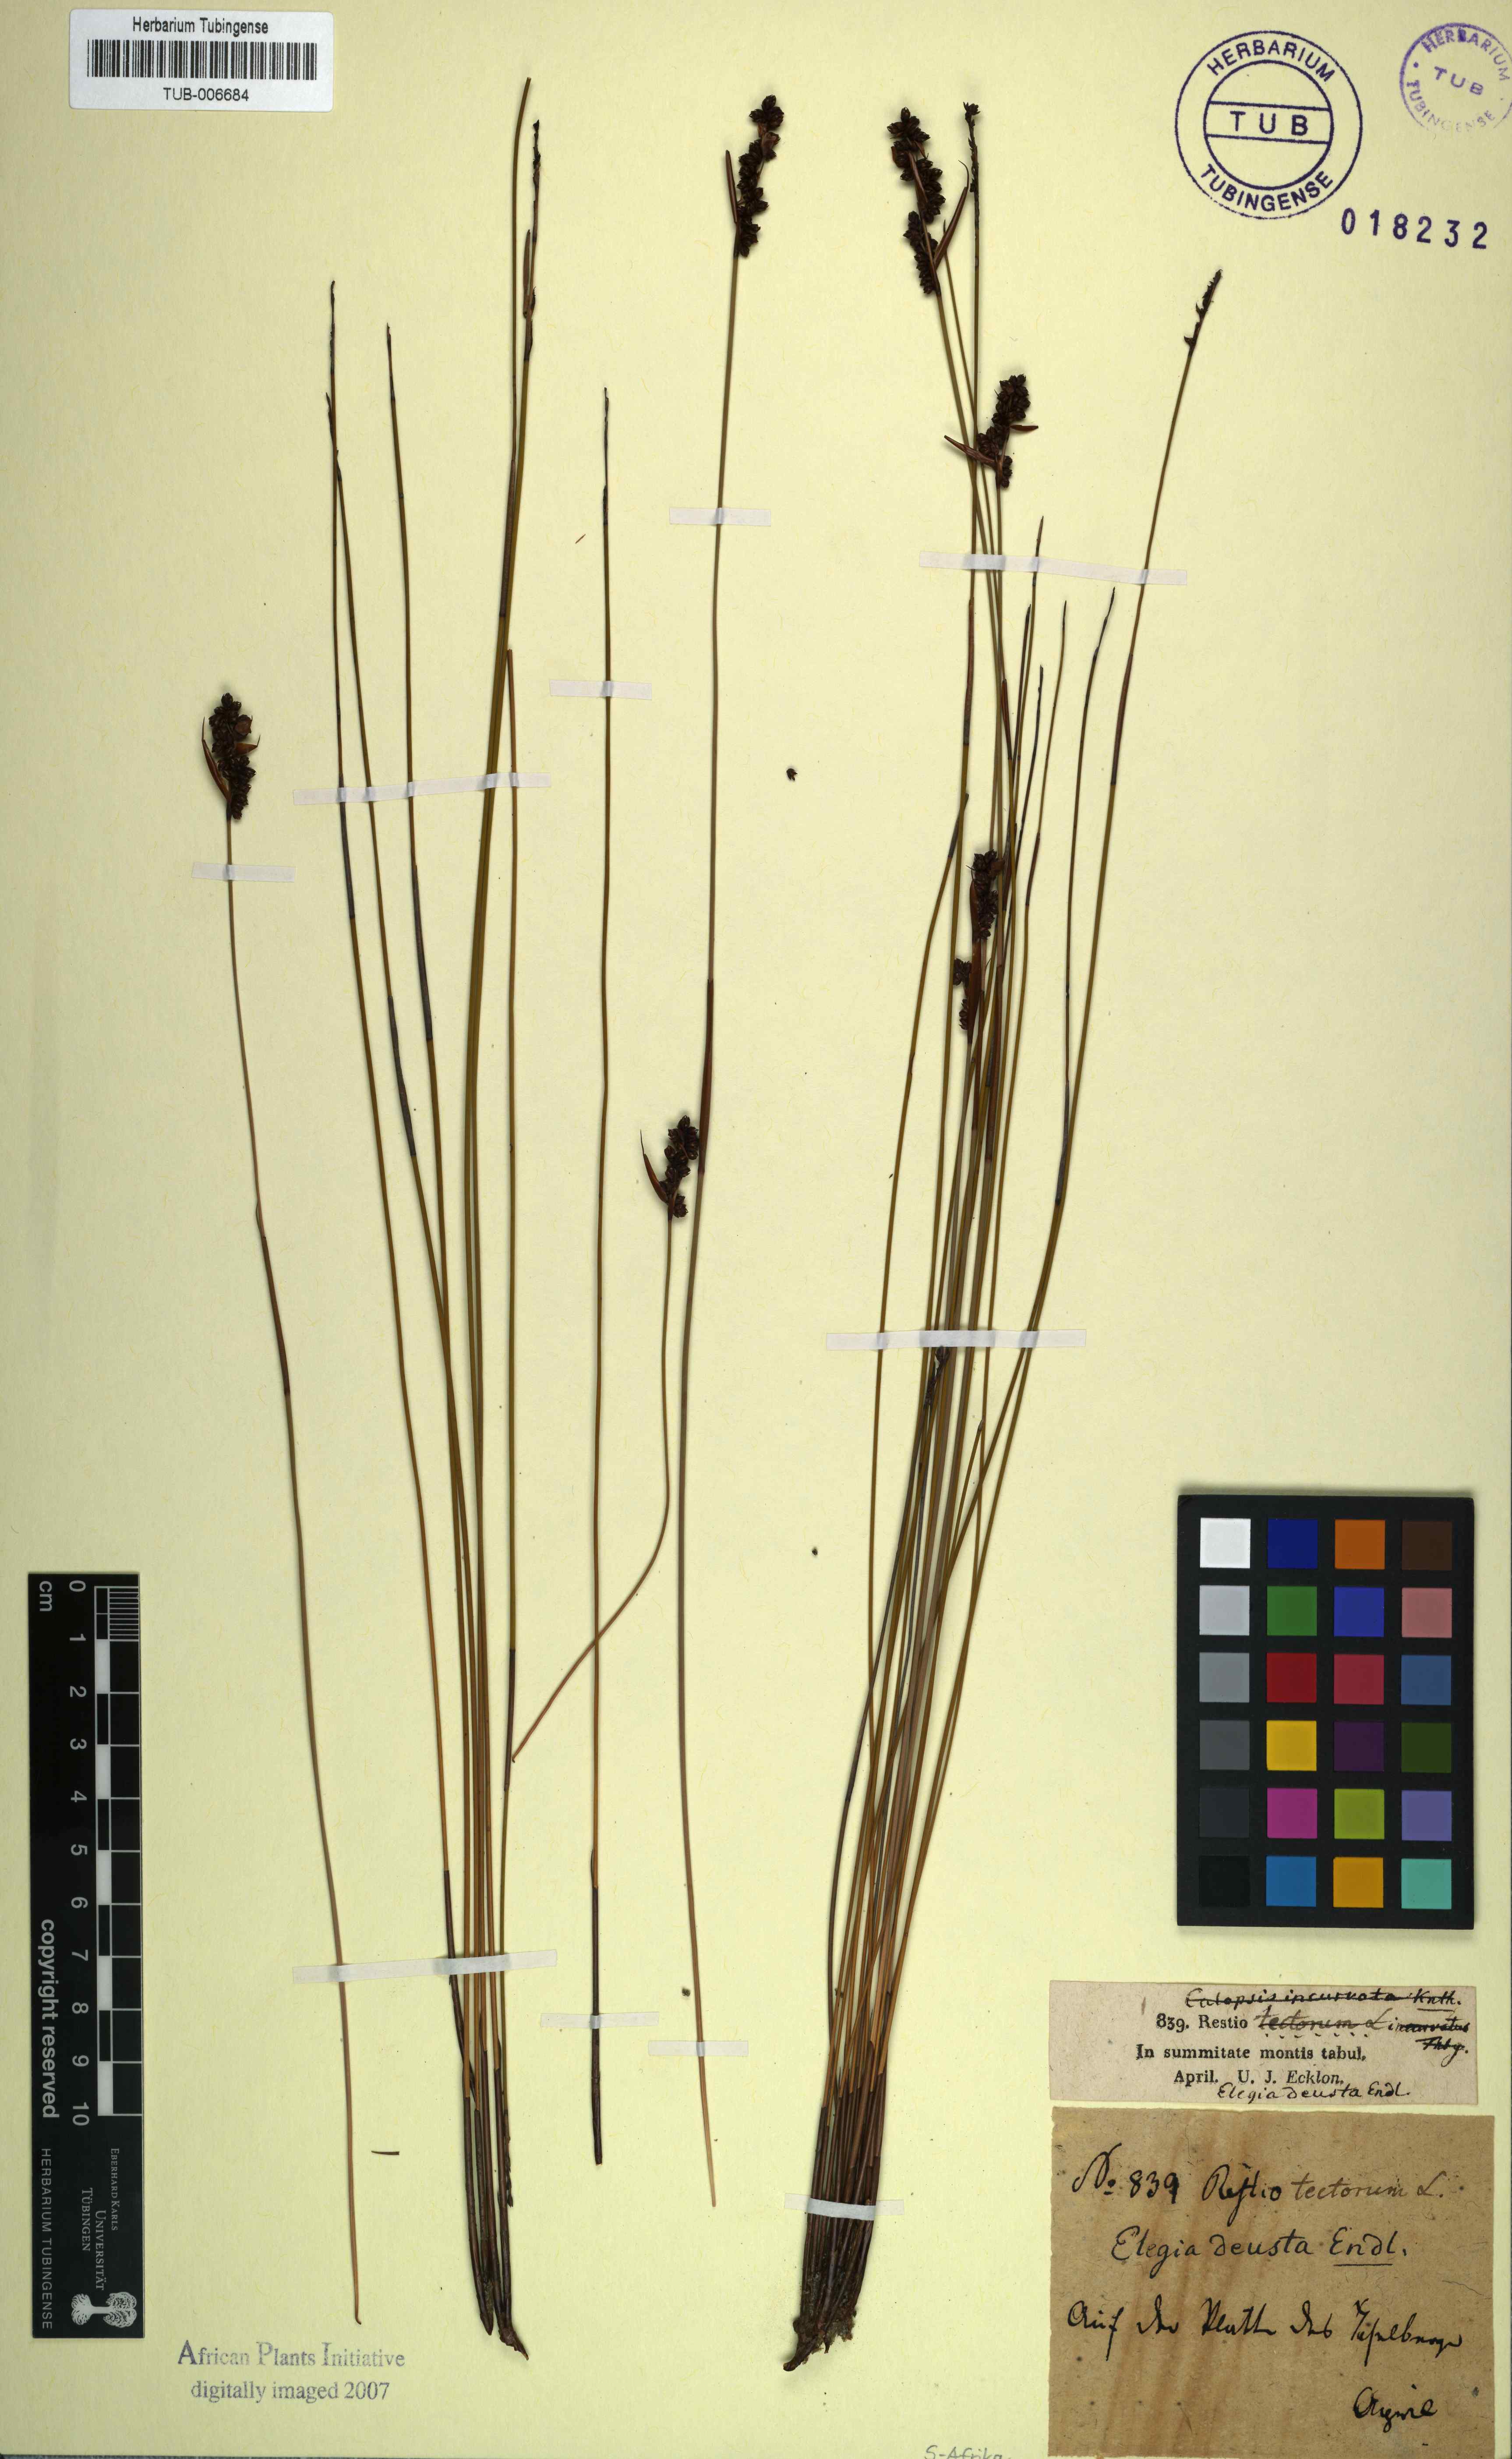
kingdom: Plantae
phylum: Tracheophyta
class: Liliopsida
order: Poales
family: Restionaceae
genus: Elegia
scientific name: Elegia deusta
